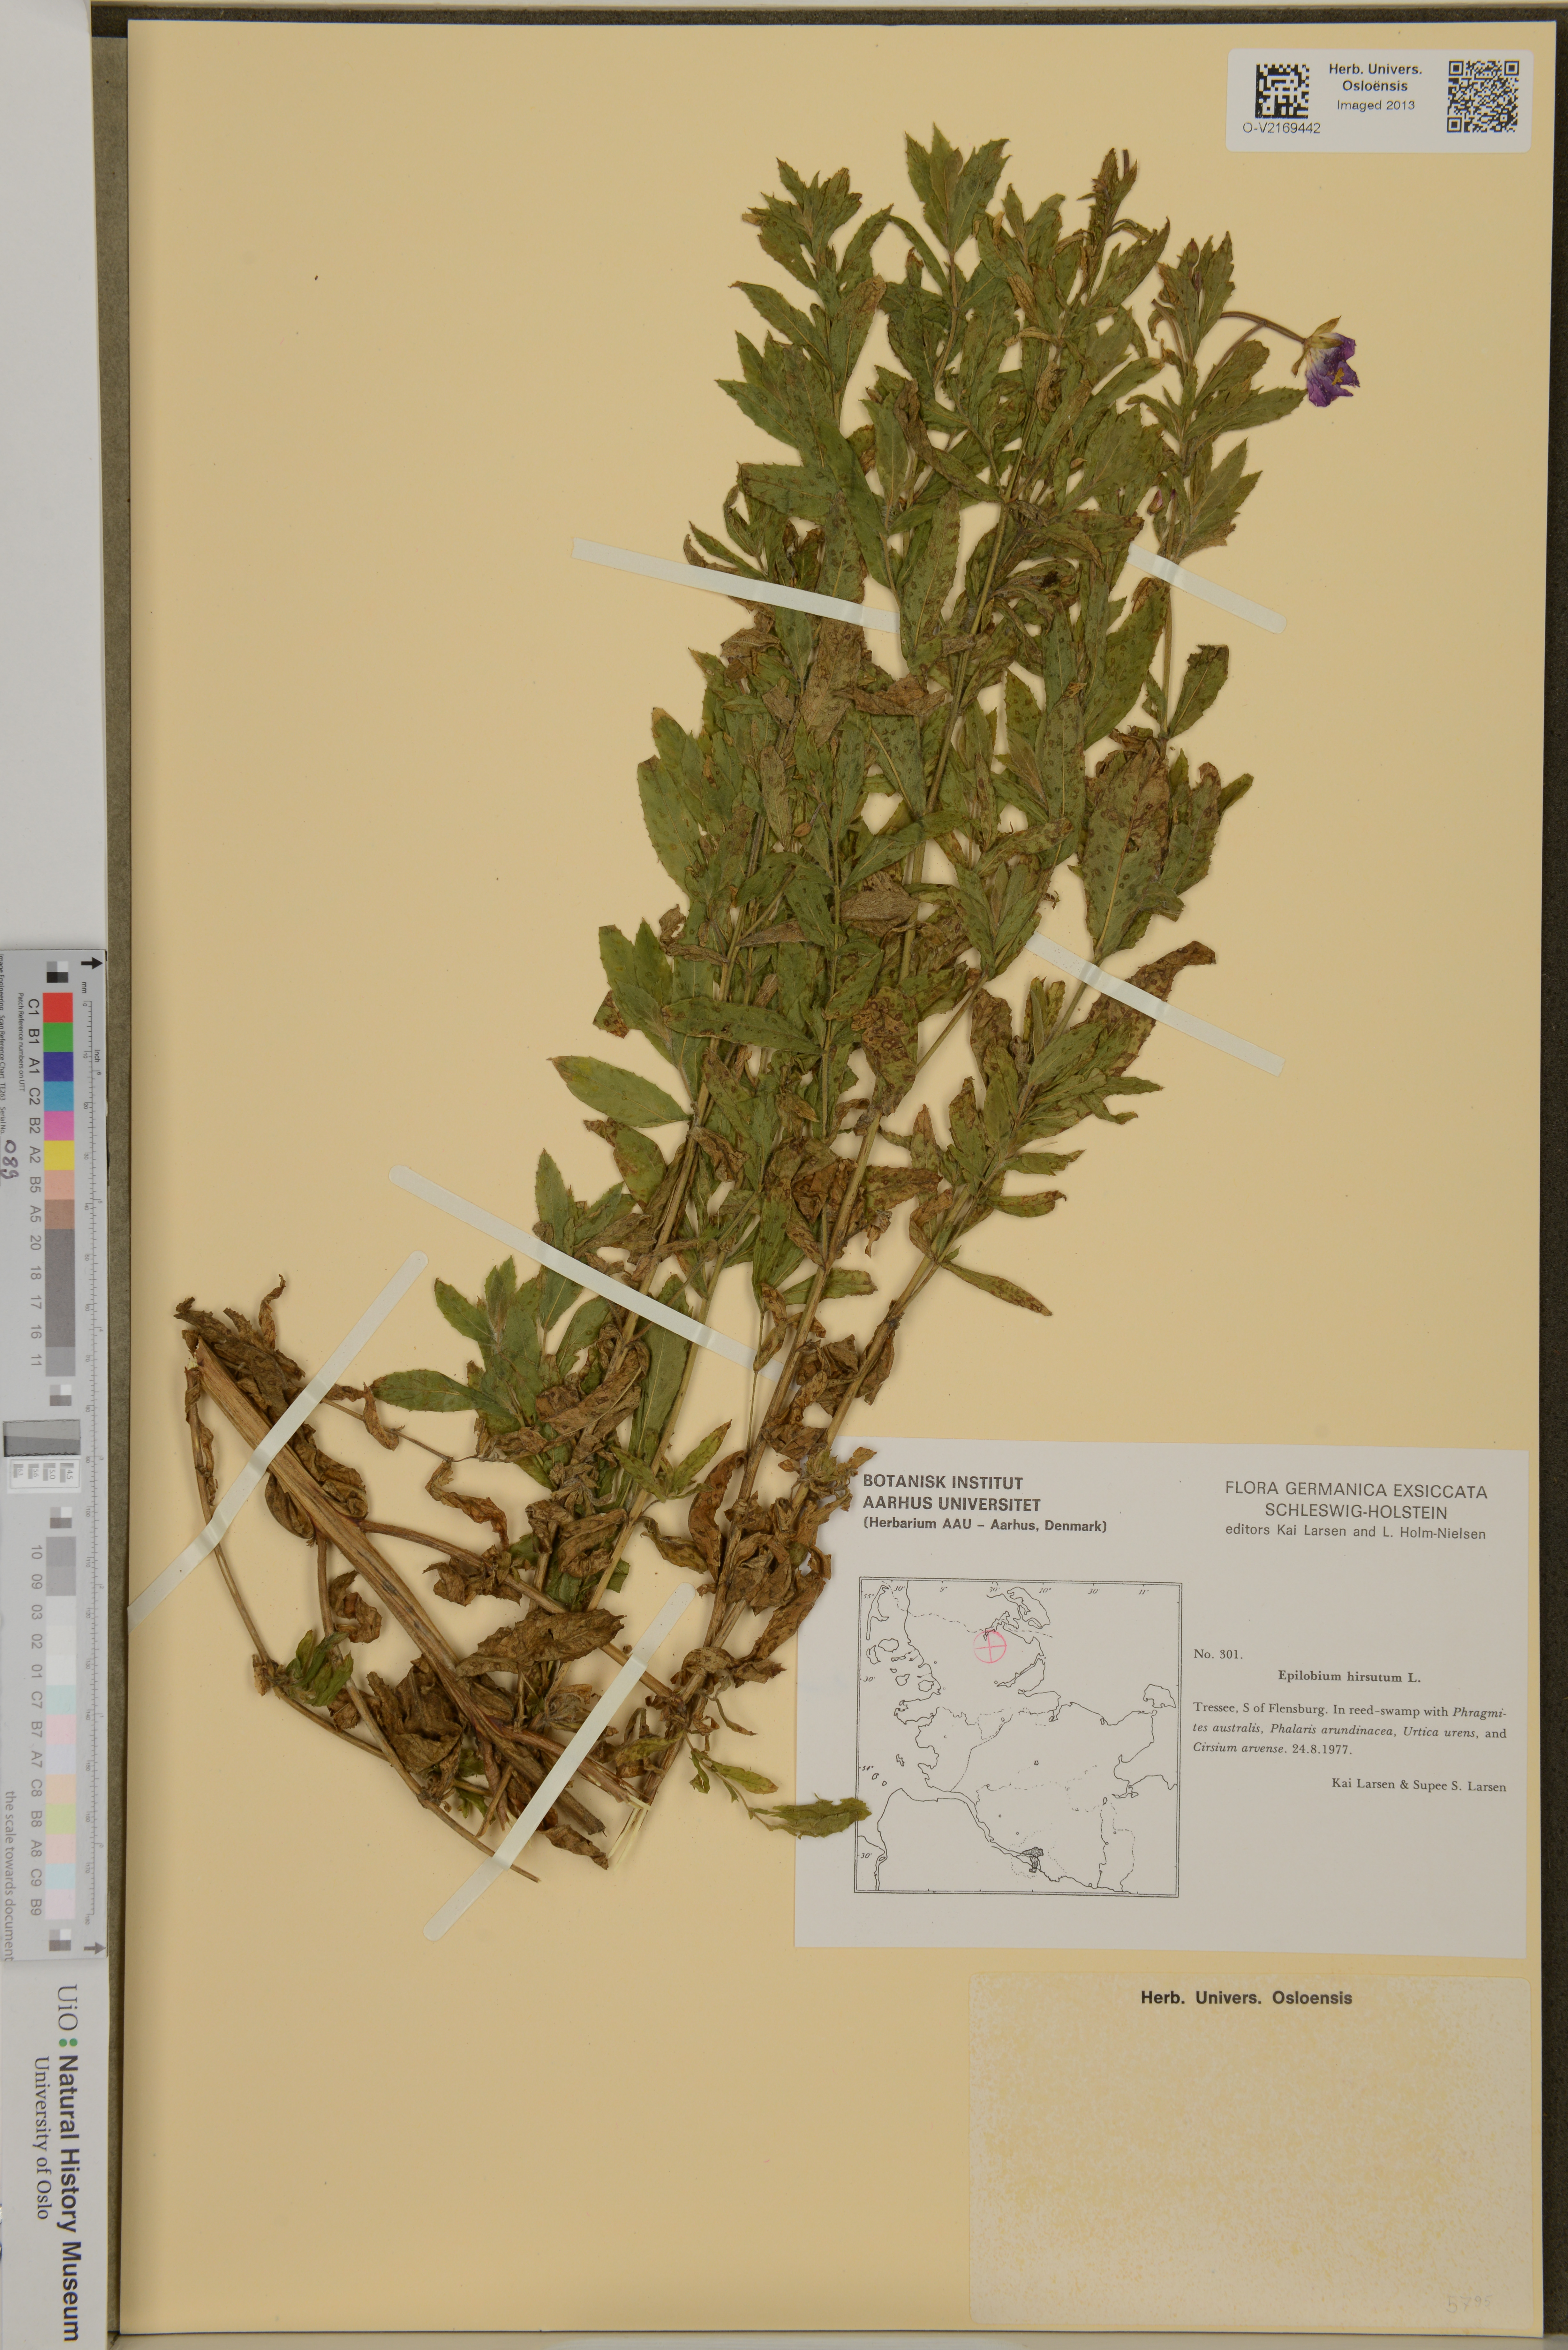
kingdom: Plantae
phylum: Tracheophyta
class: Magnoliopsida
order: Myrtales
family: Onagraceae
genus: Epilobium
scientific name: Epilobium hirsutum
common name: Great willowherb
